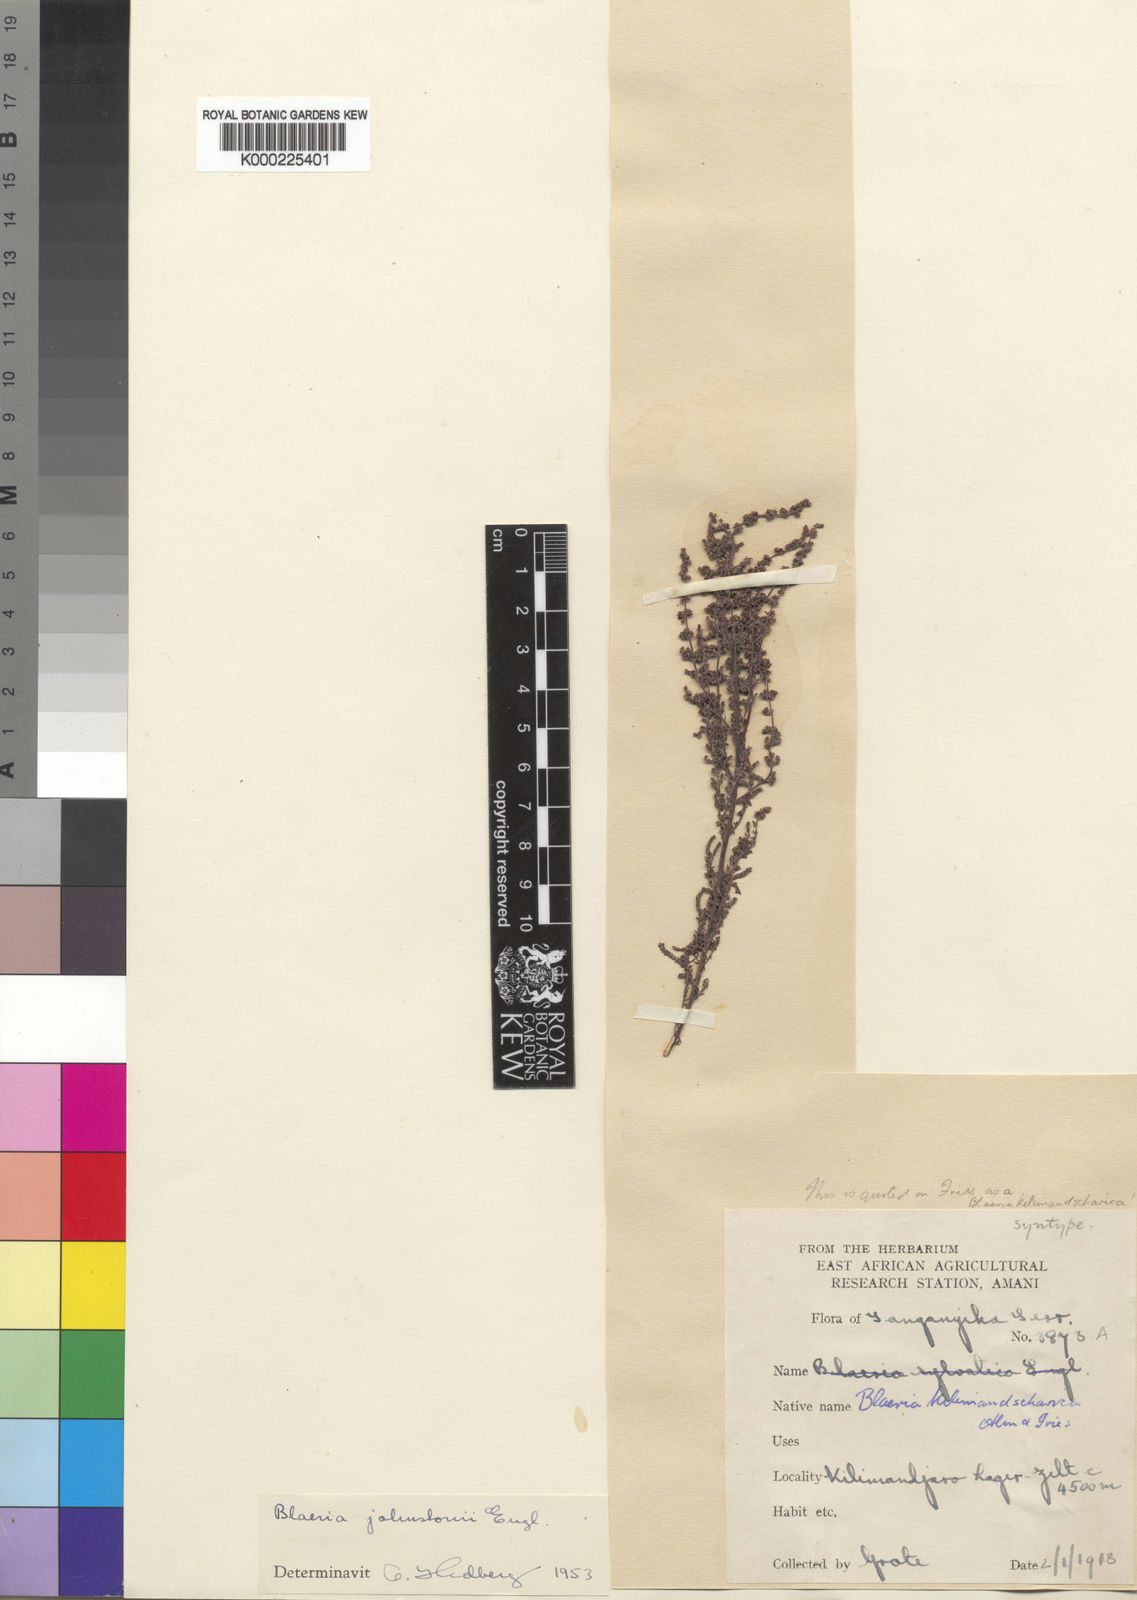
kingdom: Plantae
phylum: Tracheophyta
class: Magnoliopsida
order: Ericales
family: Ericaceae
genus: Erica
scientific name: Erica silvatica
